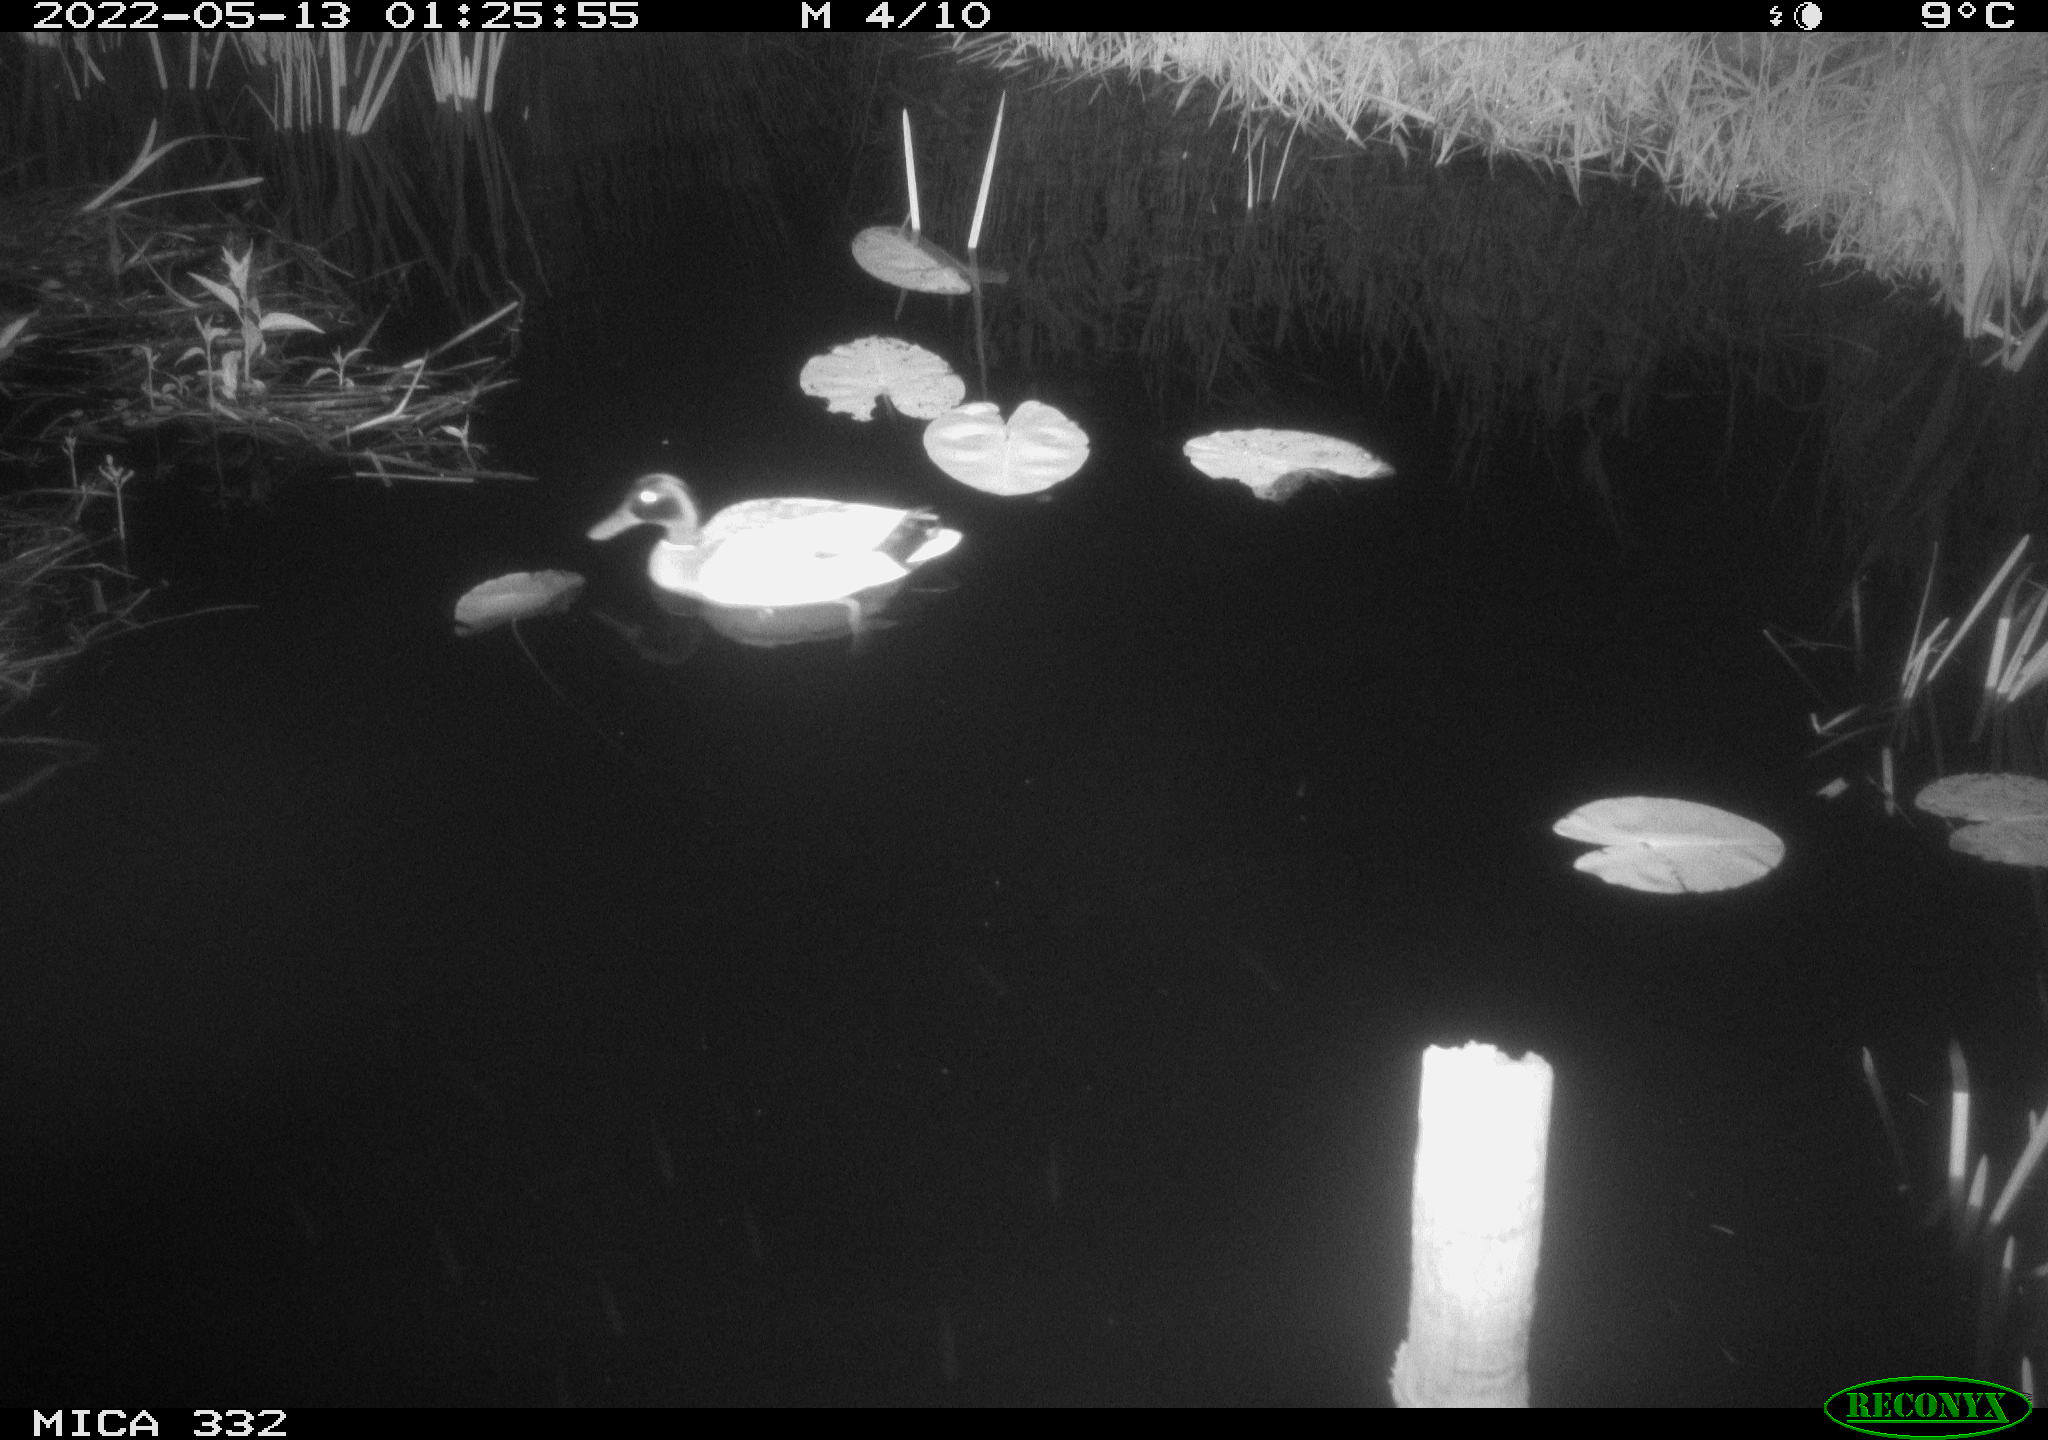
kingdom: Animalia
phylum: Chordata
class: Aves
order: Anseriformes
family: Anatidae
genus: Anas
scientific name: Anas platyrhynchos
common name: Mallard
